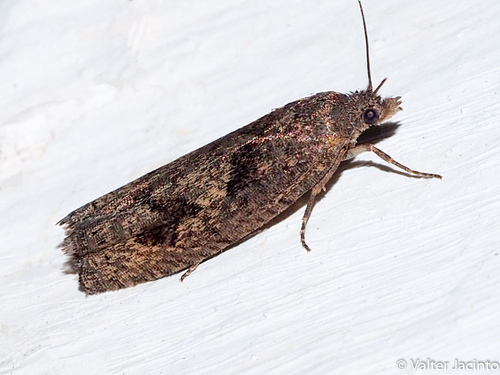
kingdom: Animalia
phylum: Arthropoda
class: Insecta
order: Lepidoptera
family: Tortricidae
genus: Cydia
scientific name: Cydia strigulatana
